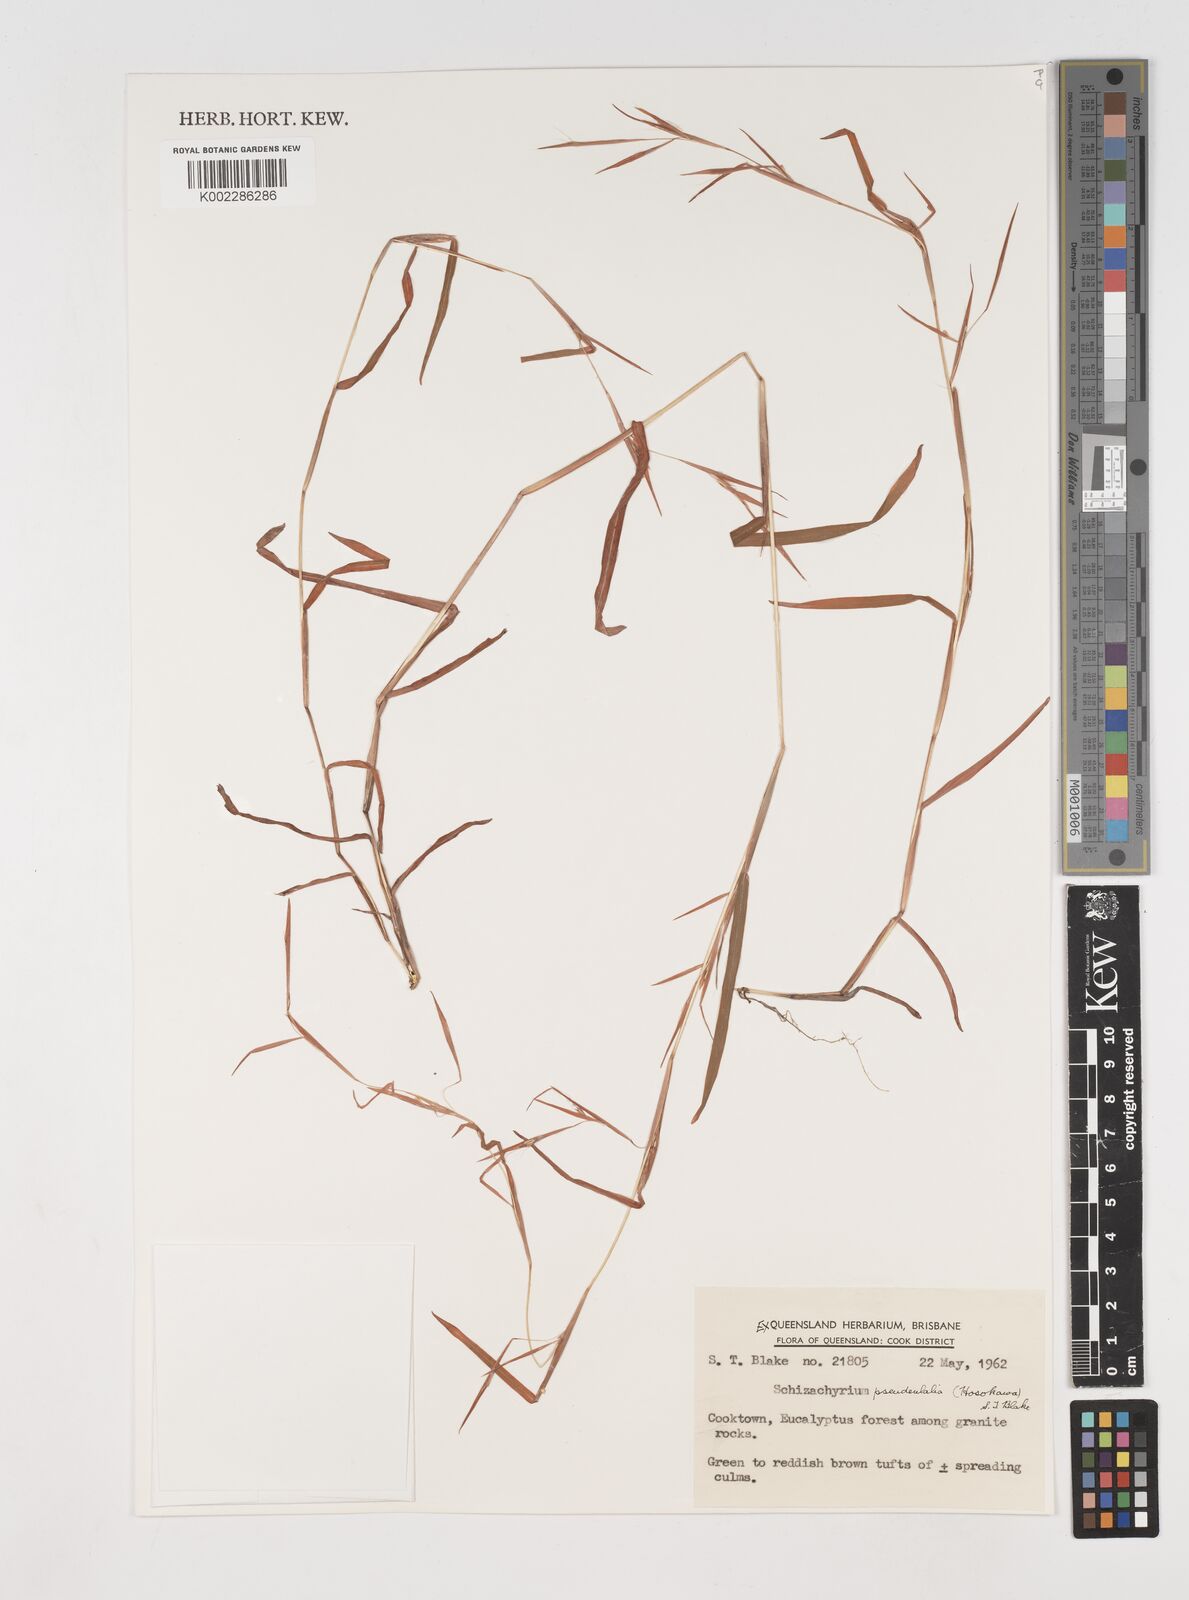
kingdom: Plantae
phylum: Tracheophyta
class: Liliopsida
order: Poales
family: Poaceae
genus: Schizachyrium
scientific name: Schizachyrium pseudeulalia
